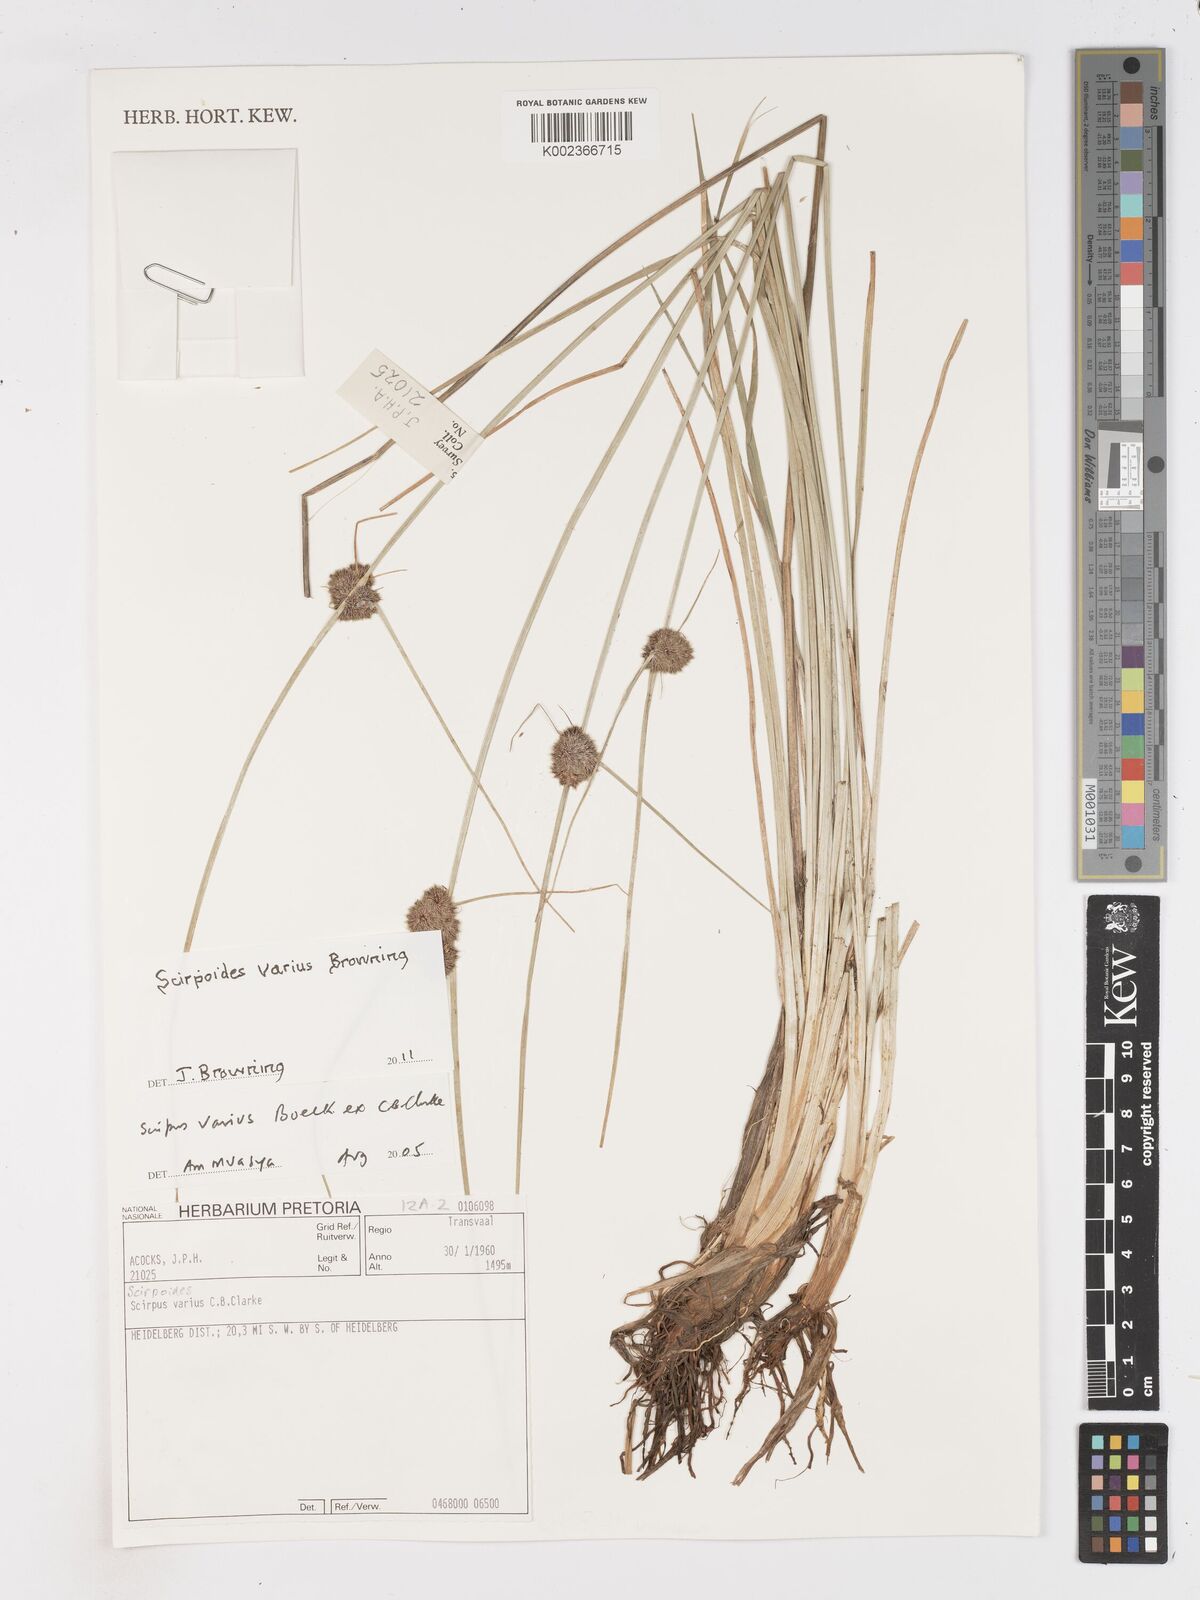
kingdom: Plantae
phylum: Tracheophyta
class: Liliopsida
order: Poales
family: Cyperaceae
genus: Scirpoides
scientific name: Scirpoides varia
